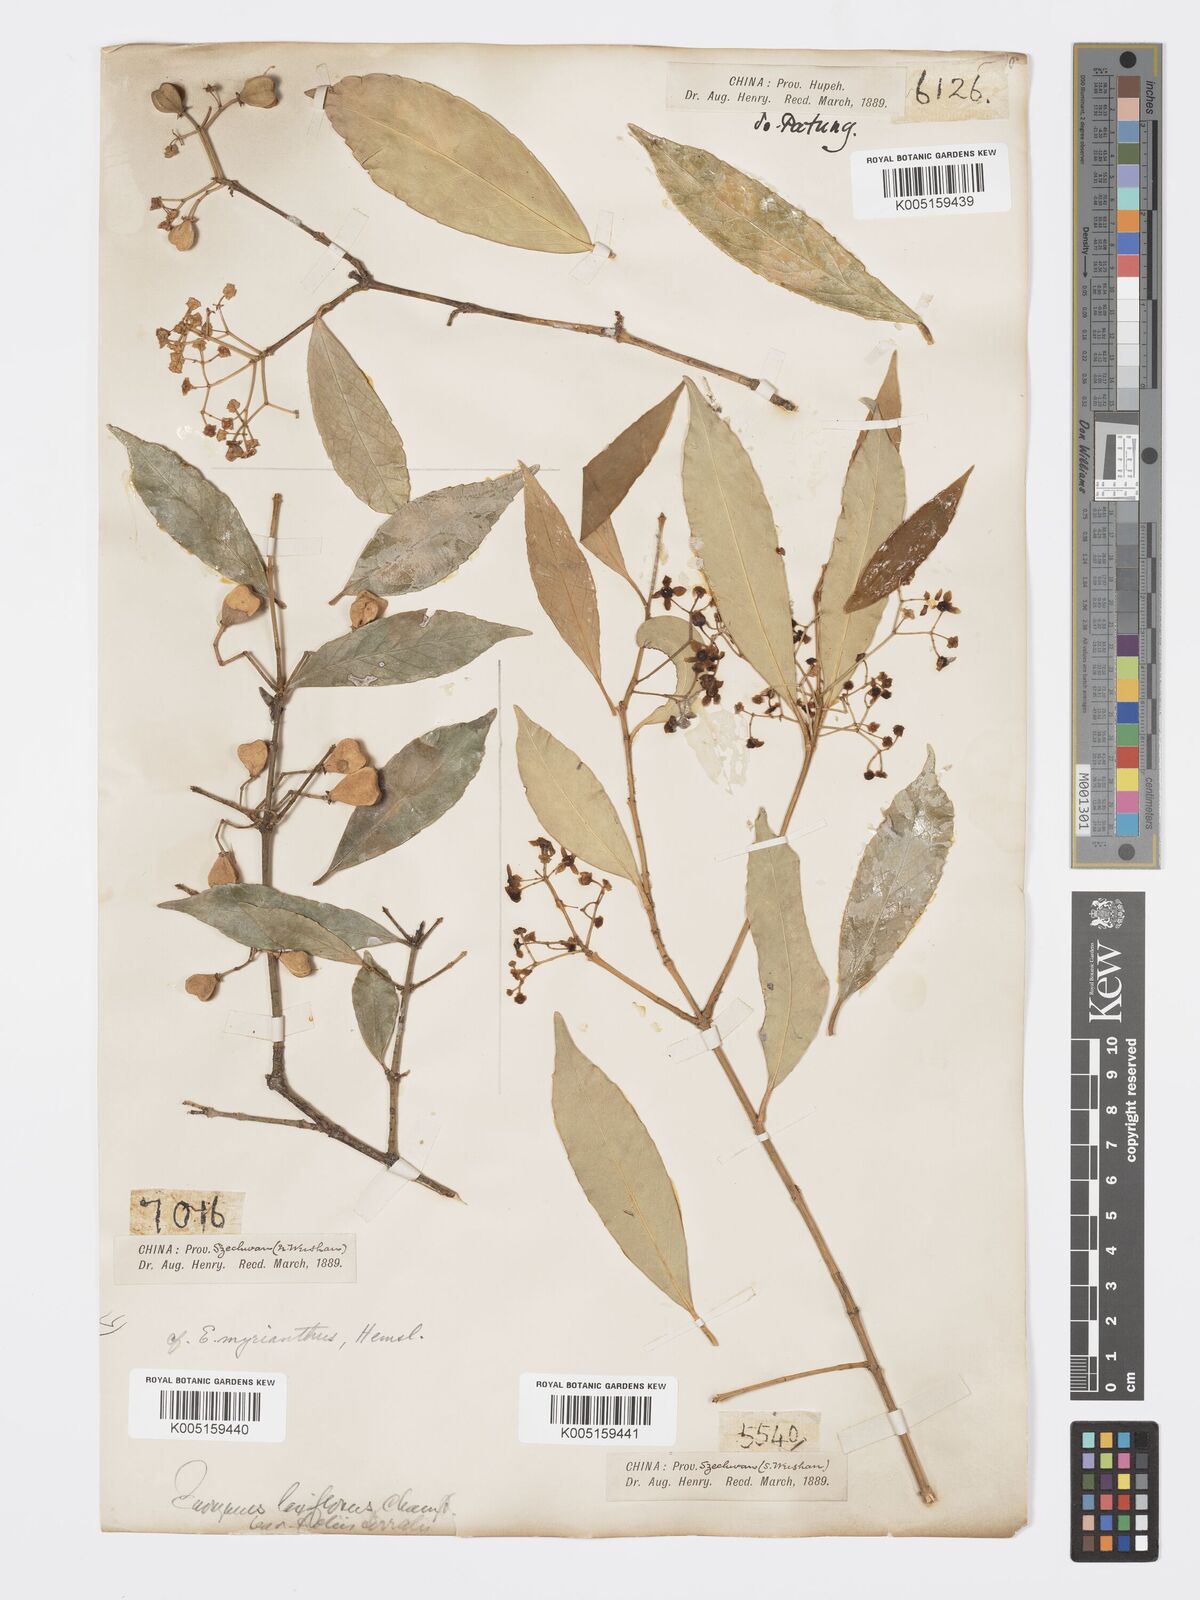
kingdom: Plantae
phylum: Tracheophyta
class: Magnoliopsida
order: Celastrales
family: Celastraceae
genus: Euonymus
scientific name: Euonymus myrianthus
